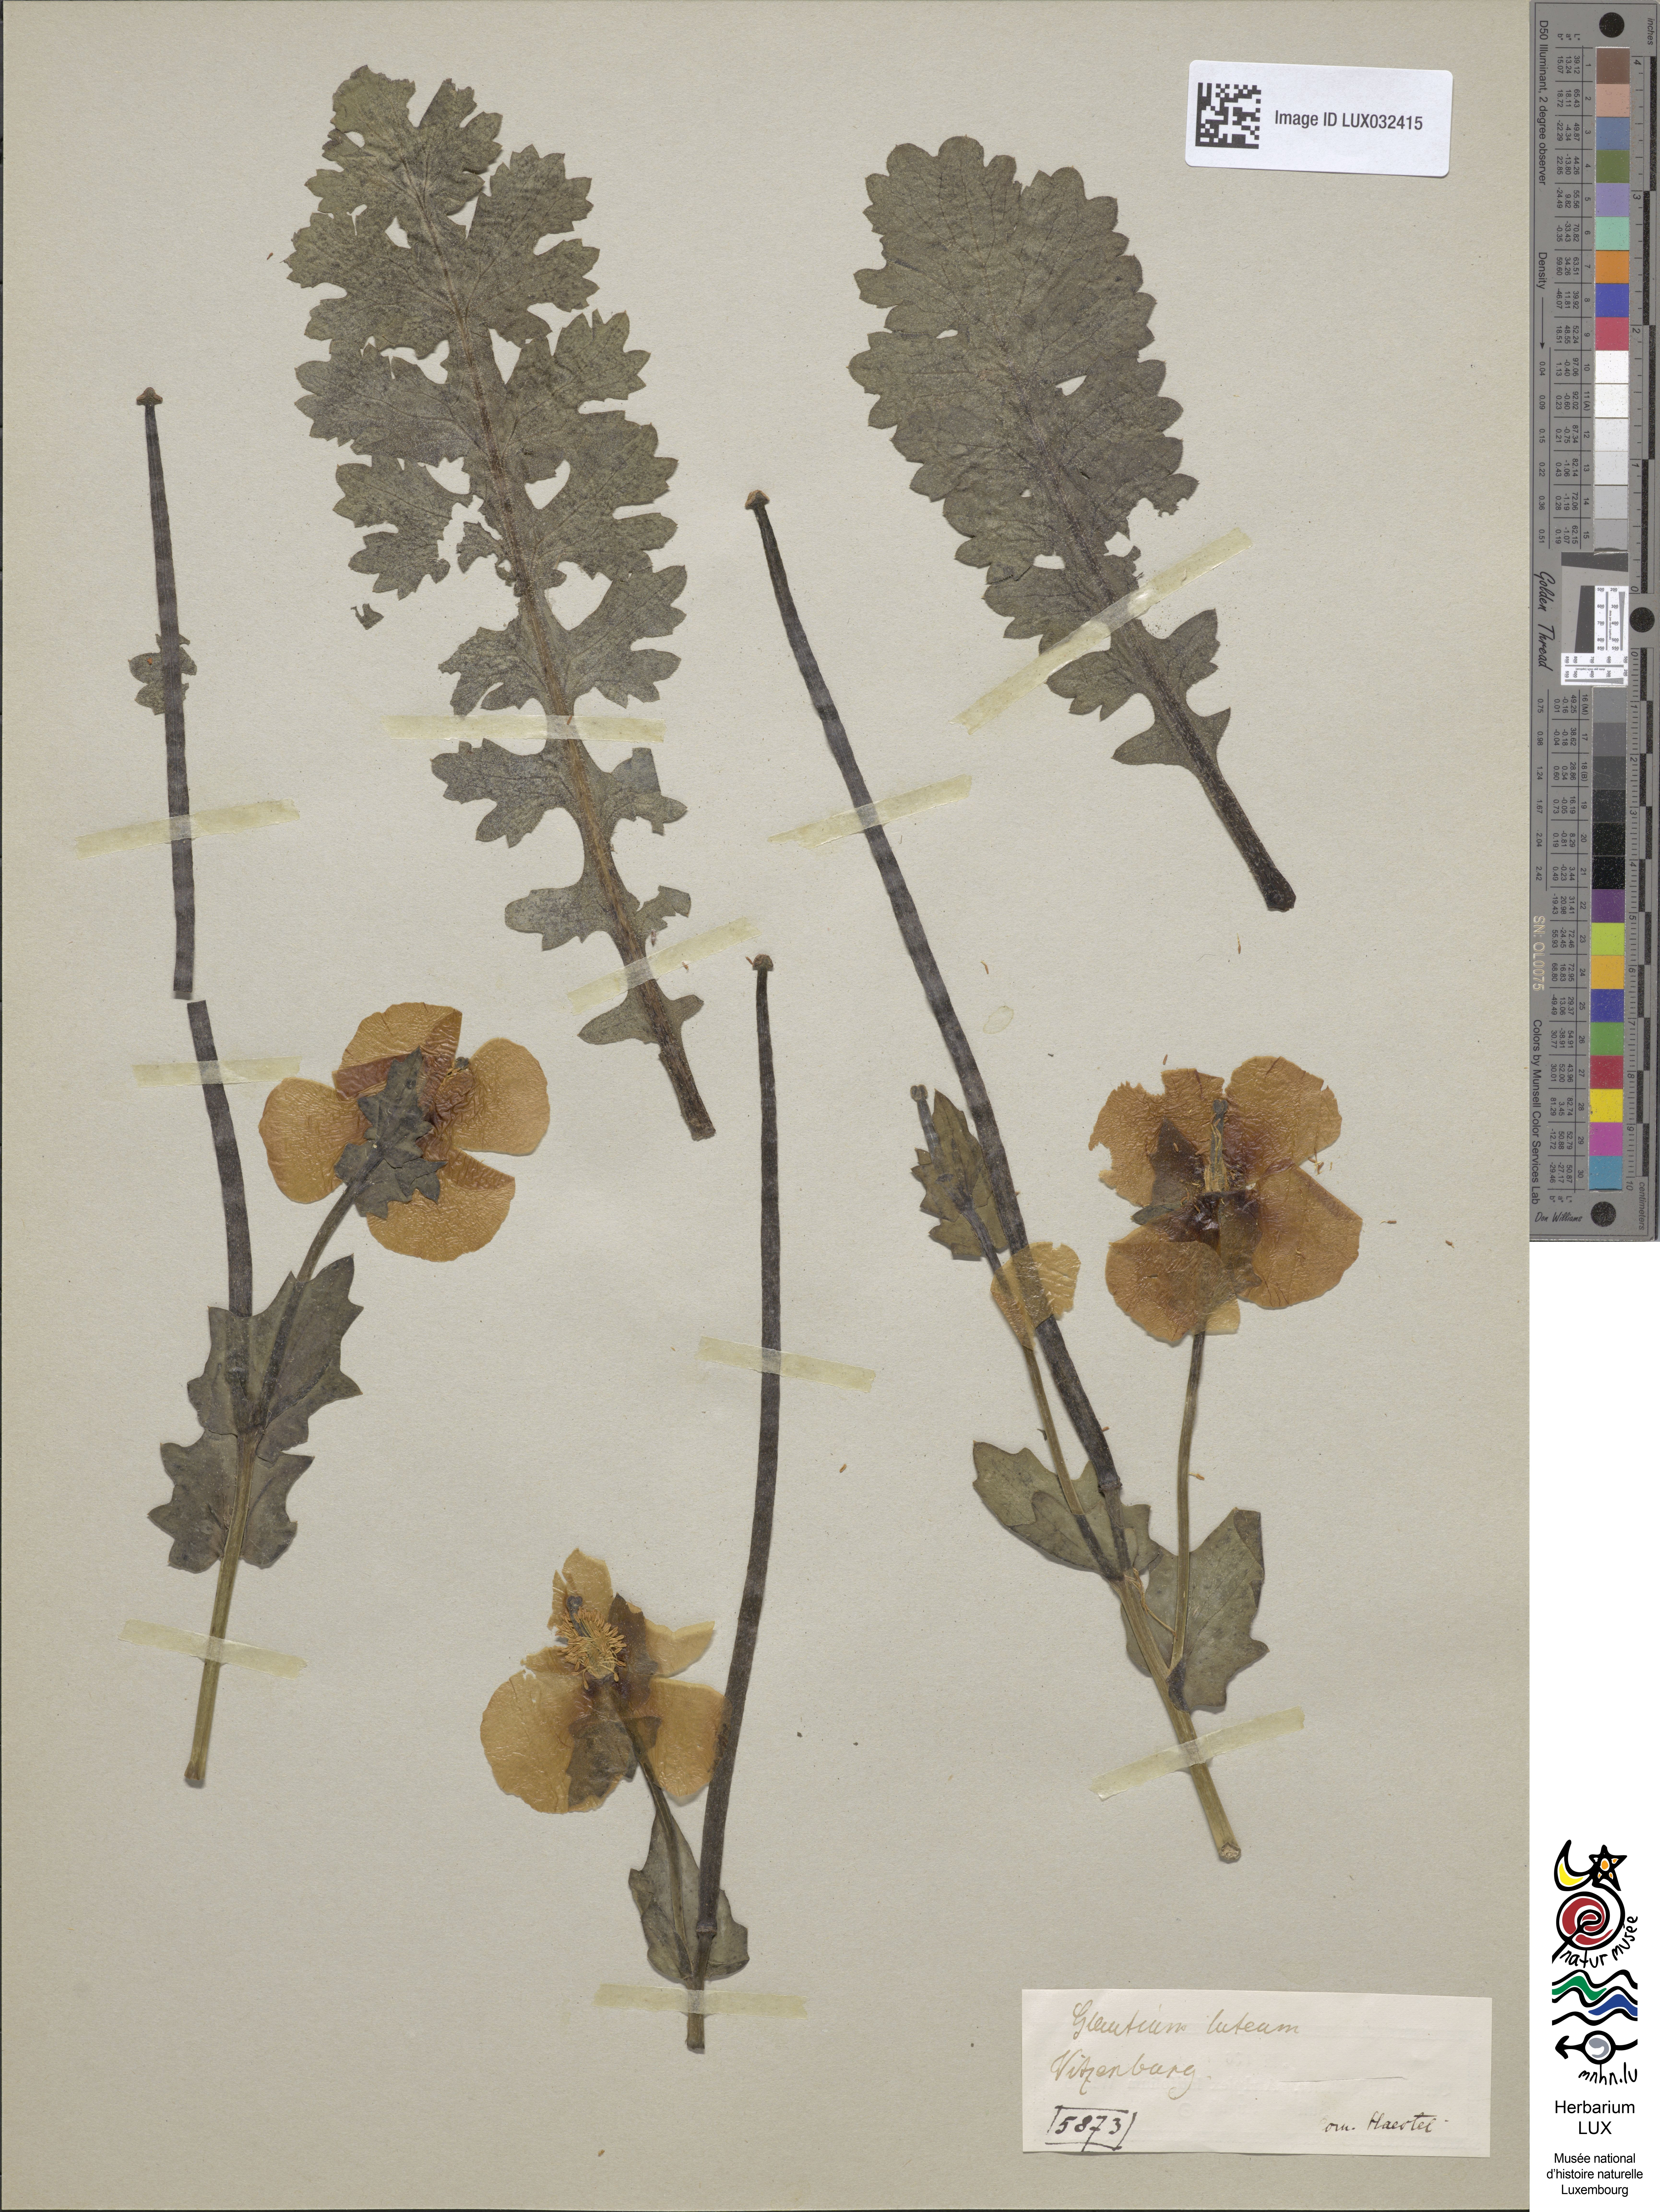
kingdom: Plantae
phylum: Tracheophyta
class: Magnoliopsida
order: Ranunculales
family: Papaveraceae
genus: Glaucium
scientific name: Glaucium flavum
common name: Yellow horned-poppy
